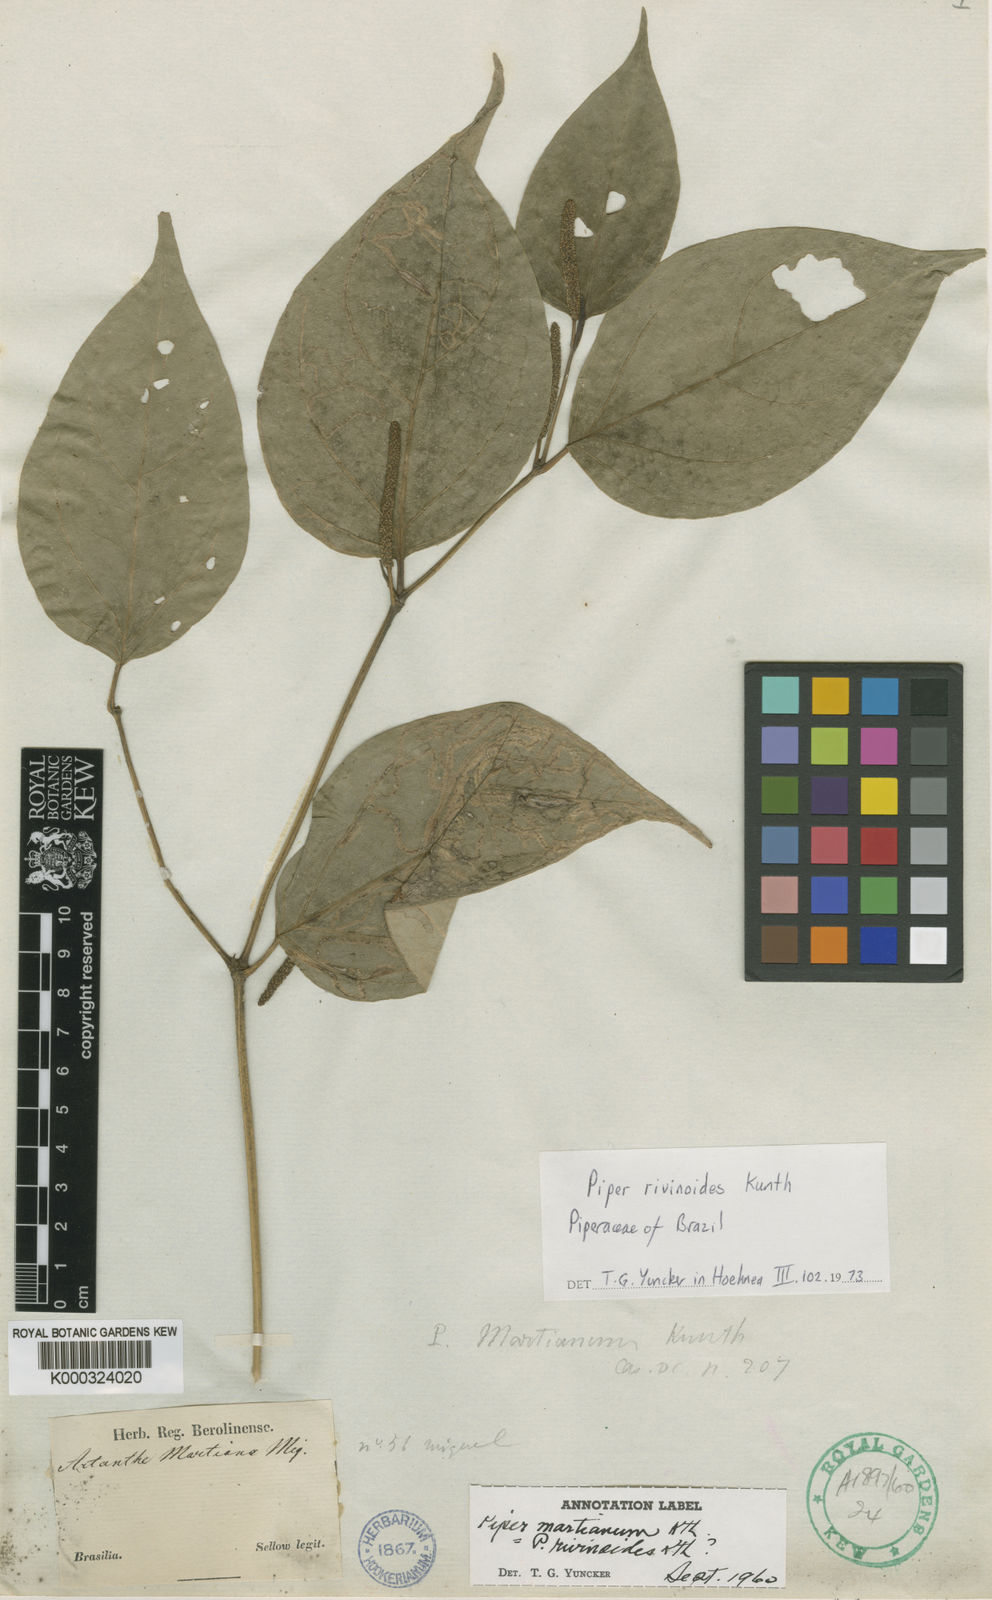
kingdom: Plantae
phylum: Tracheophyta
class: Magnoliopsida
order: Piperales
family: Piperaceae
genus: Piper
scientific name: Piper
